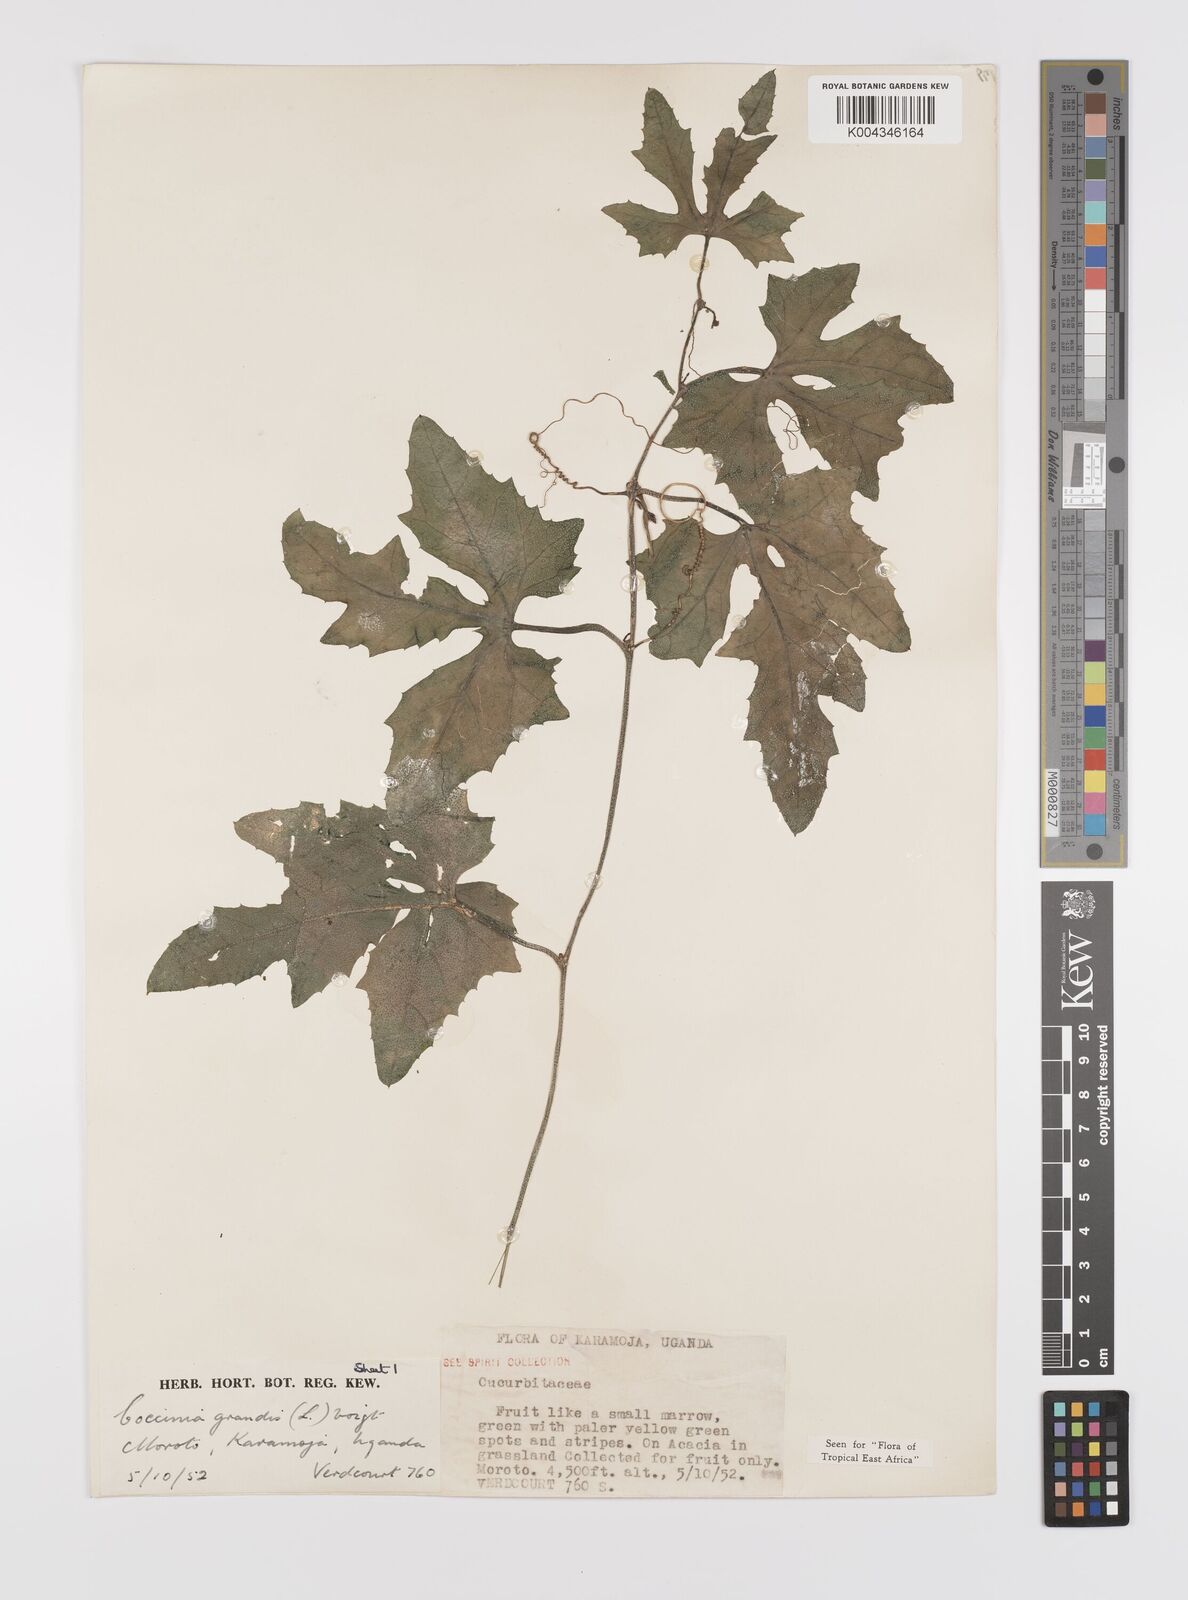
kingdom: Plantae
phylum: Tracheophyta
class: Magnoliopsida
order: Cucurbitales
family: Cucurbitaceae
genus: Coccinia
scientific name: Coccinia grandis
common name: Ivy gourd
